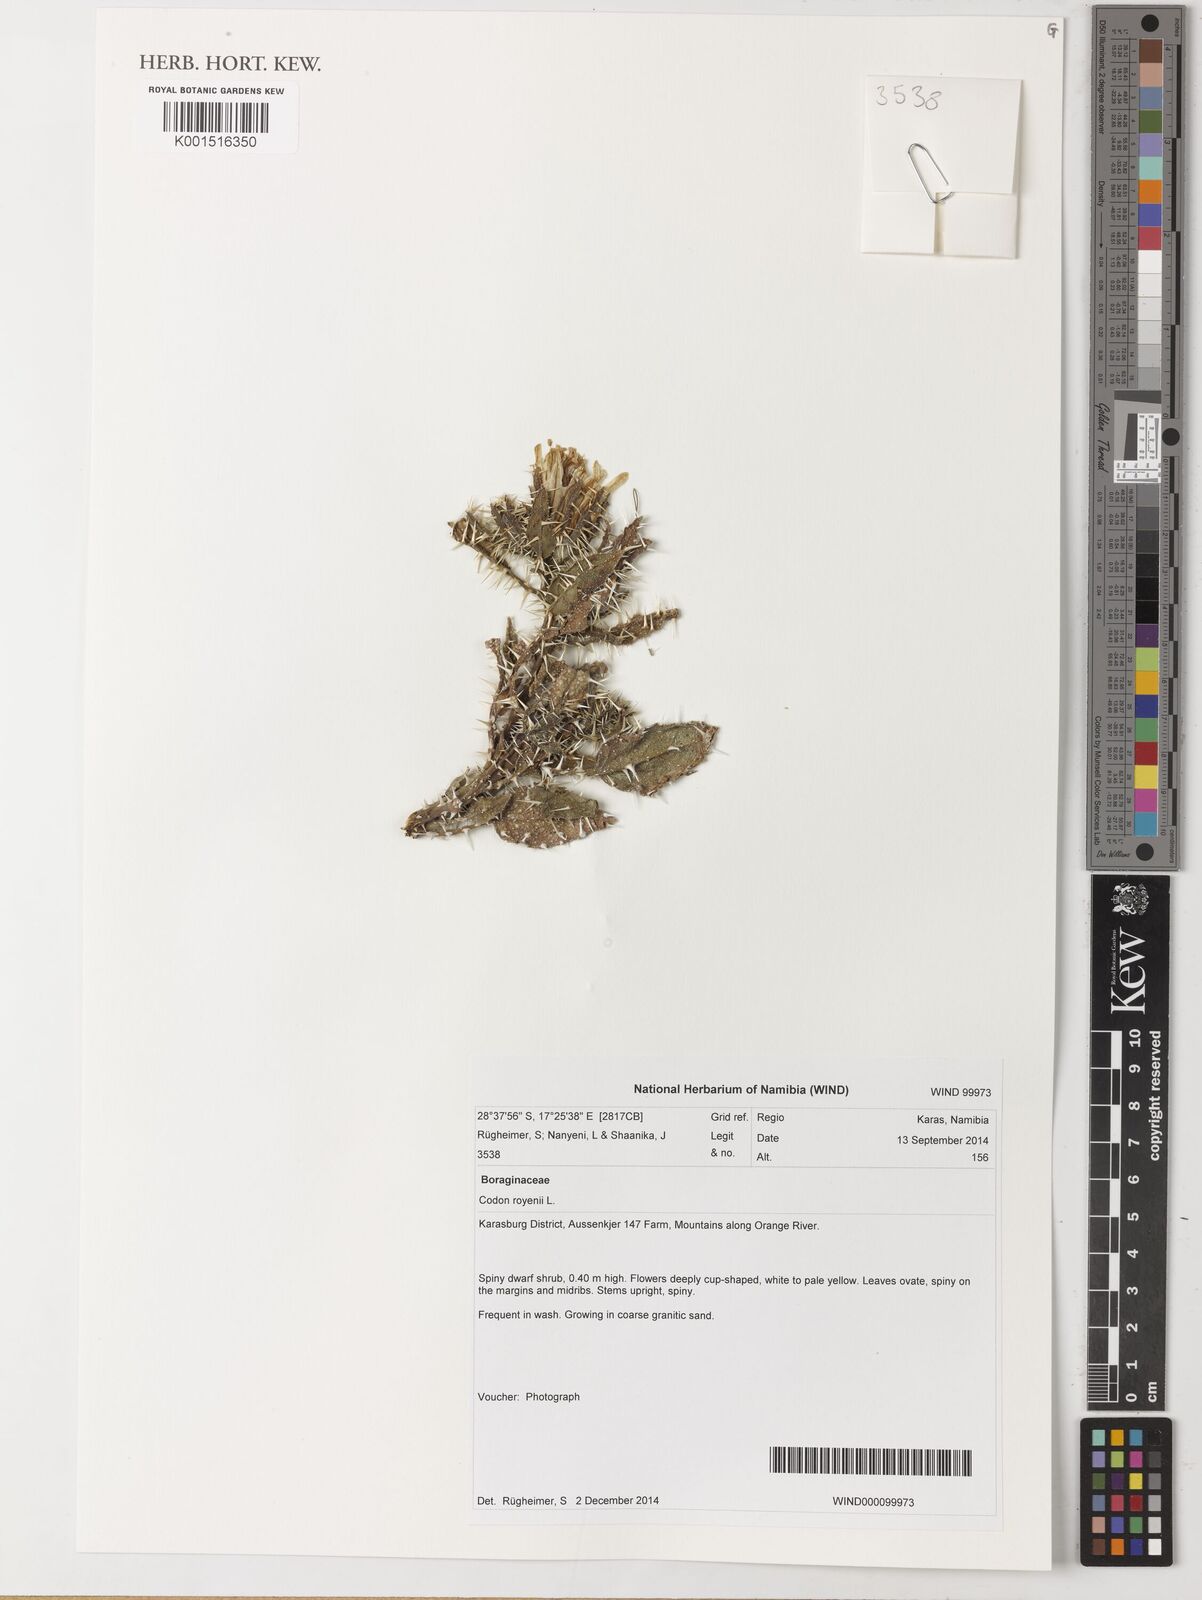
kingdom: Plantae
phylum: Tracheophyta
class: Magnoliopsida
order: Boraginales
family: Codonaceae
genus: Codon
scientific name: Codon royenii
